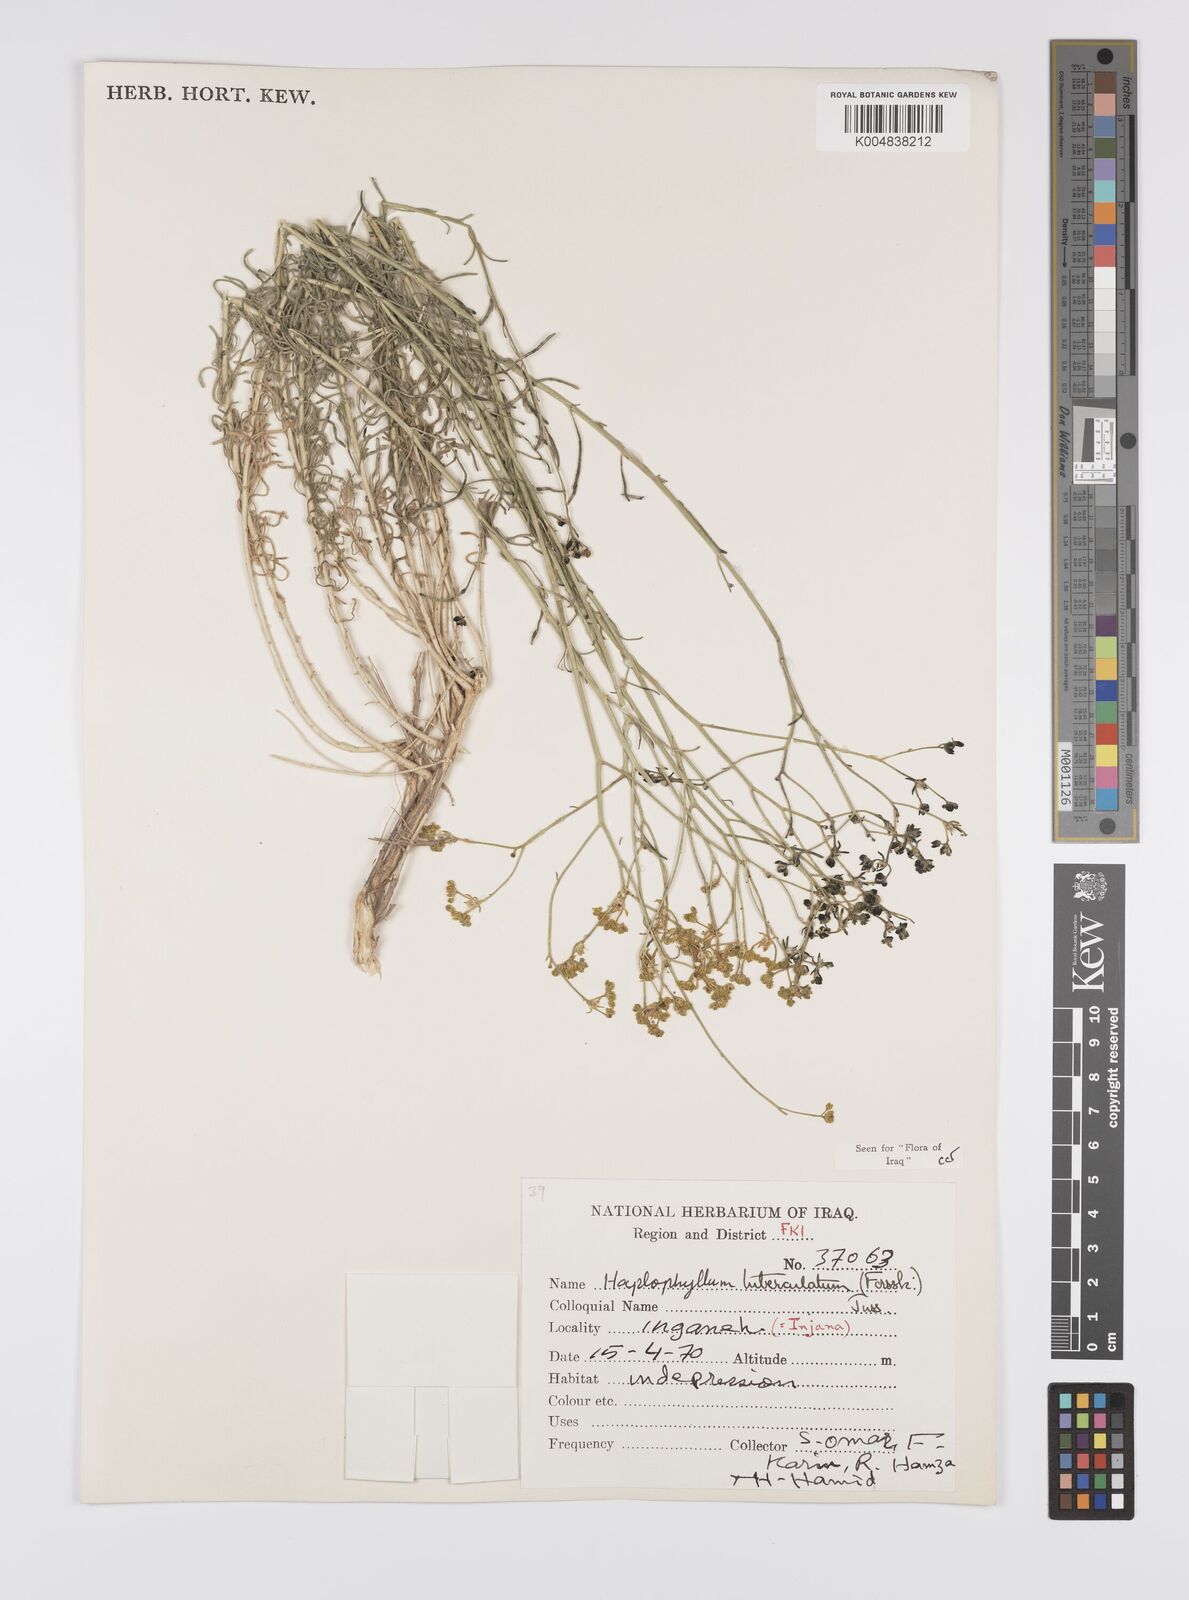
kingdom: Plantae
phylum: Tracheophyta
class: Magnoliopsida
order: Sapindales
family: Rutaceae
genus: Haplophyllum
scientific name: Haplophyllum tuberculatum
